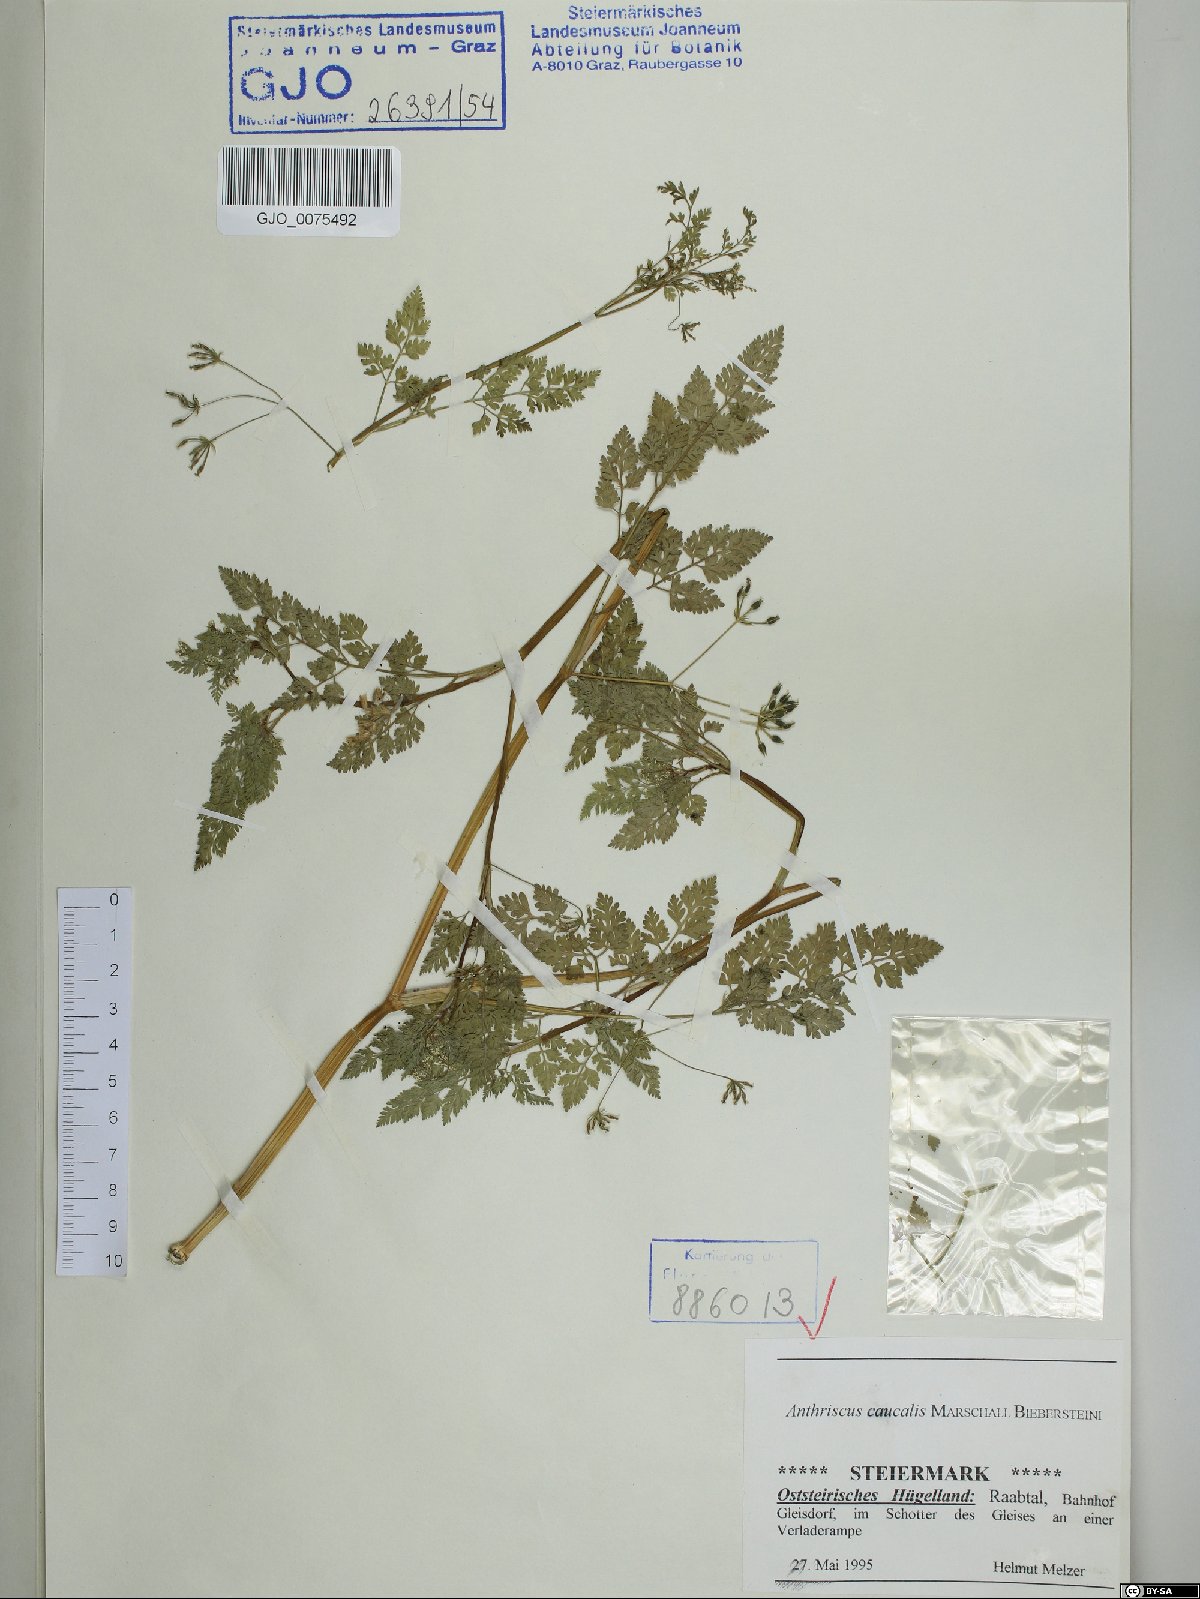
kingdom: Plantae
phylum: Tracheophyta
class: Magnoliopsida
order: Apiales
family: Apiaceae
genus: Anthriscus
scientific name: Anthriscus caucalis
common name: Bur chervil
